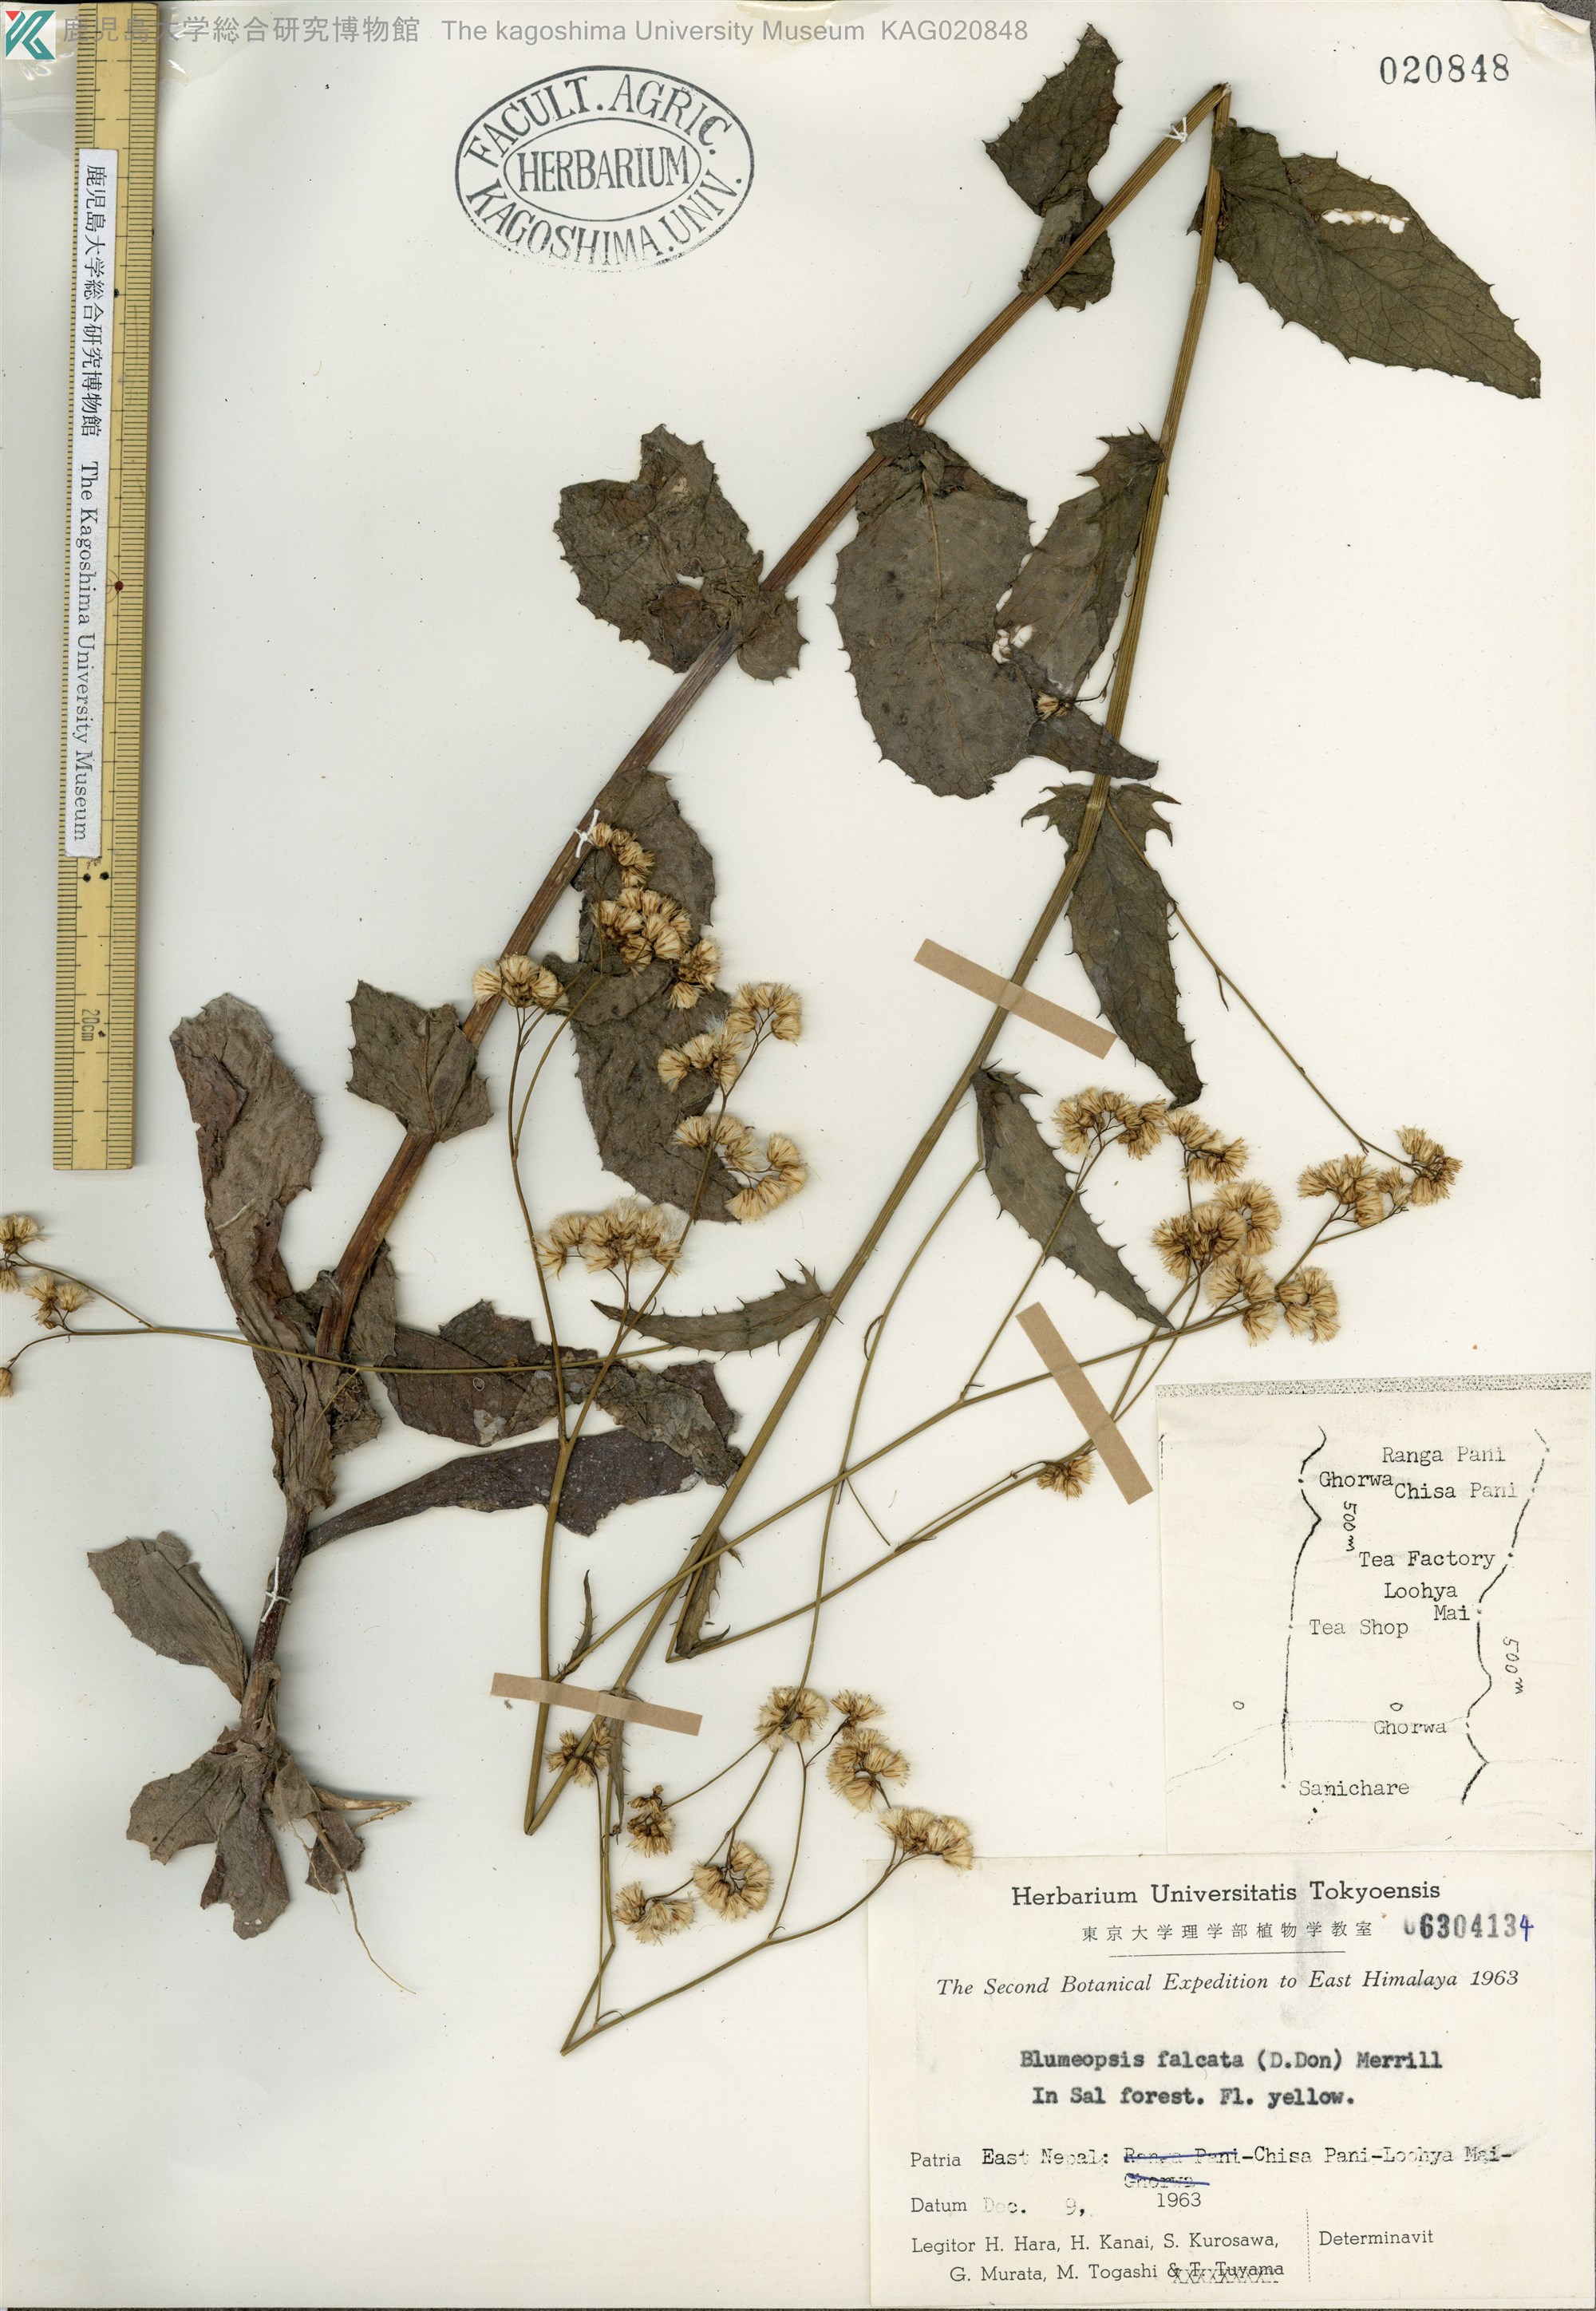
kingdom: Plantae
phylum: Tracheophyta
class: Magnoliopsida
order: Asterales
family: Asteraceae
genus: Blumeopsis
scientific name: Blumeopsis flava
